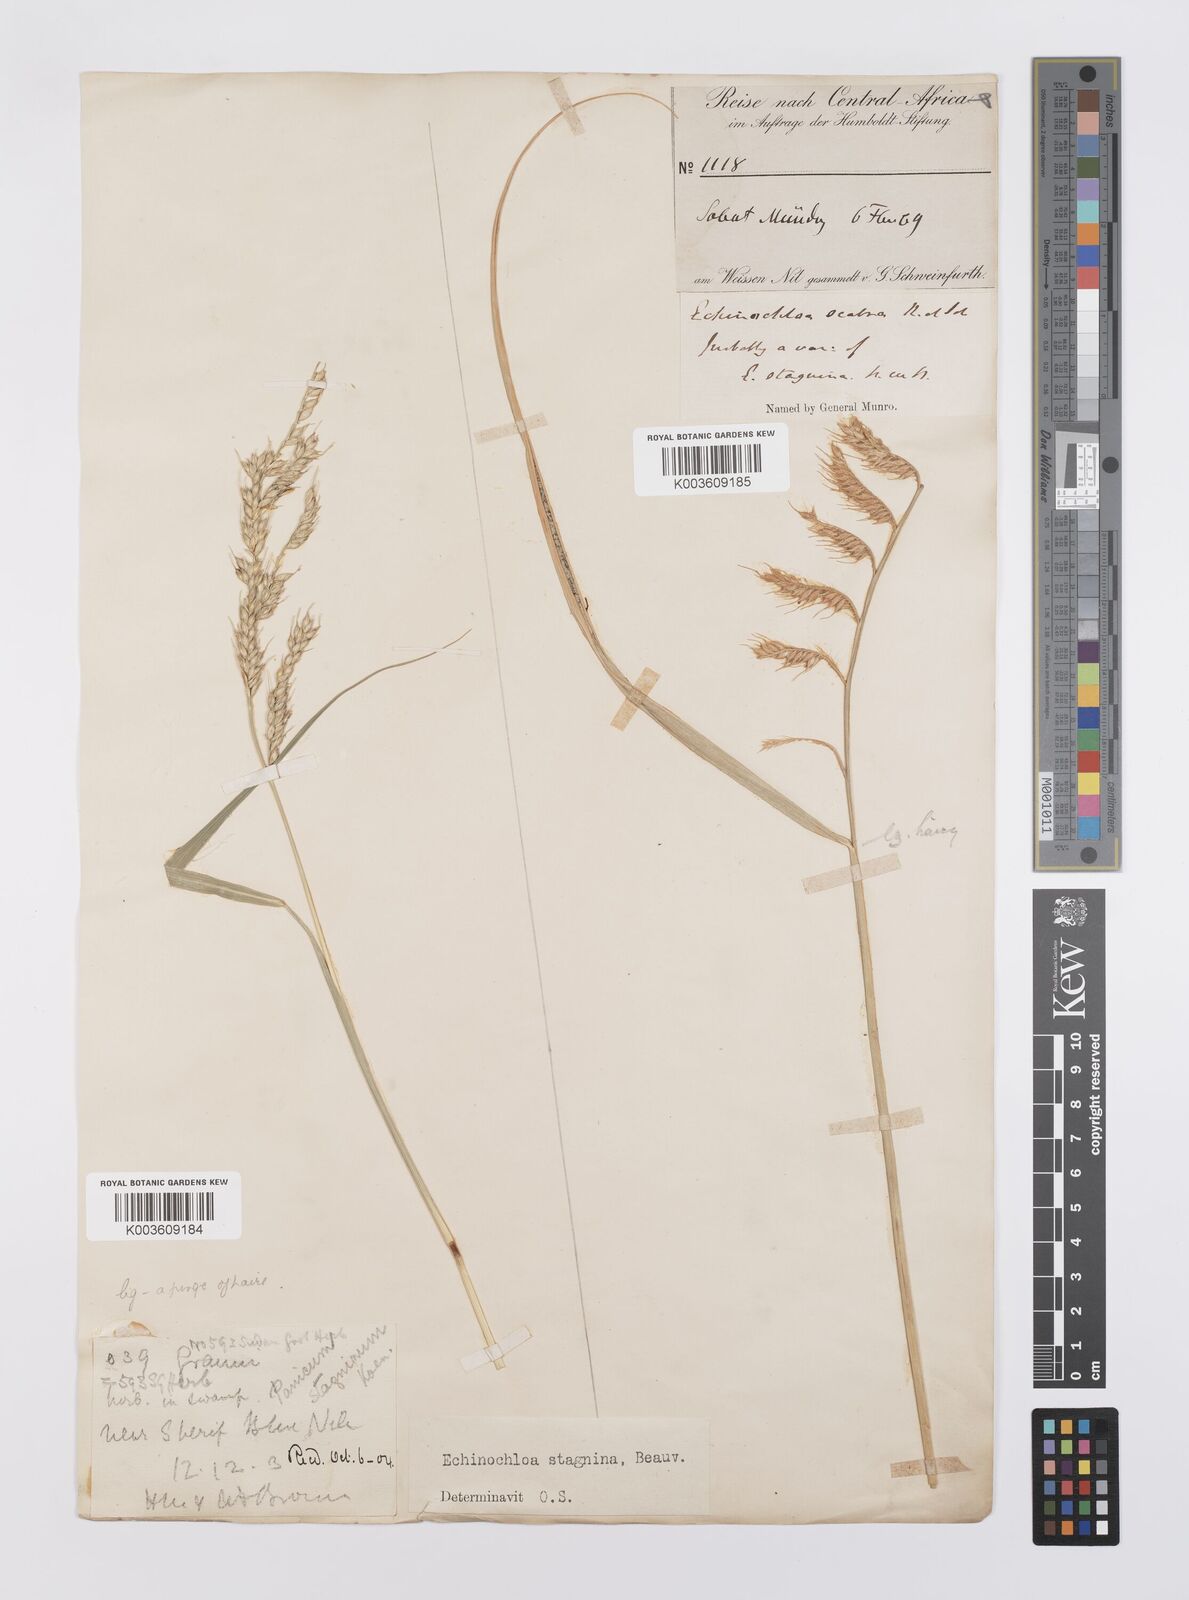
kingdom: Plantae
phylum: Tracheophyta
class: Liliopsida
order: Poales
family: Poaceae
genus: Echinochloa
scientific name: Echinochloa stagnina
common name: Burgu grass
